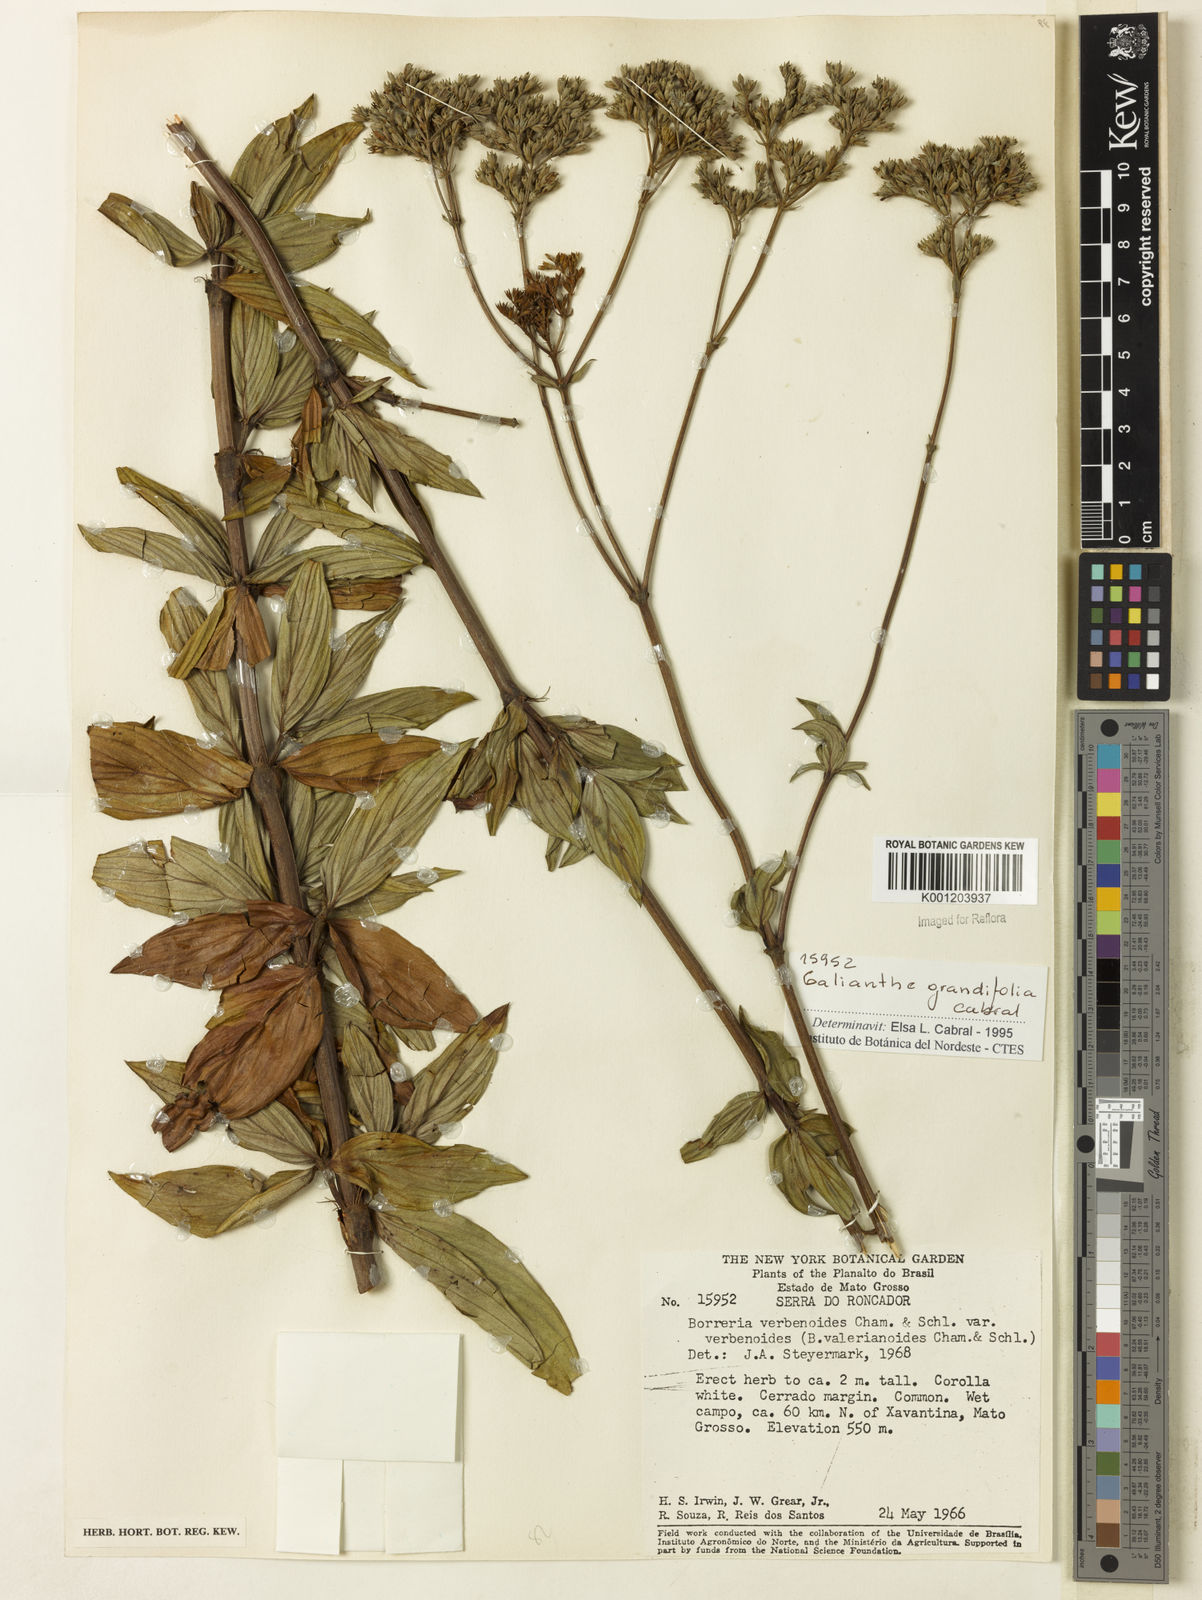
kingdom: Plantae
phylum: Tracheophyta
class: Magnoliopsida
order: Gentianales
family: Rubiaceae
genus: Galianthe
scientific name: Galianthe grandifolia
